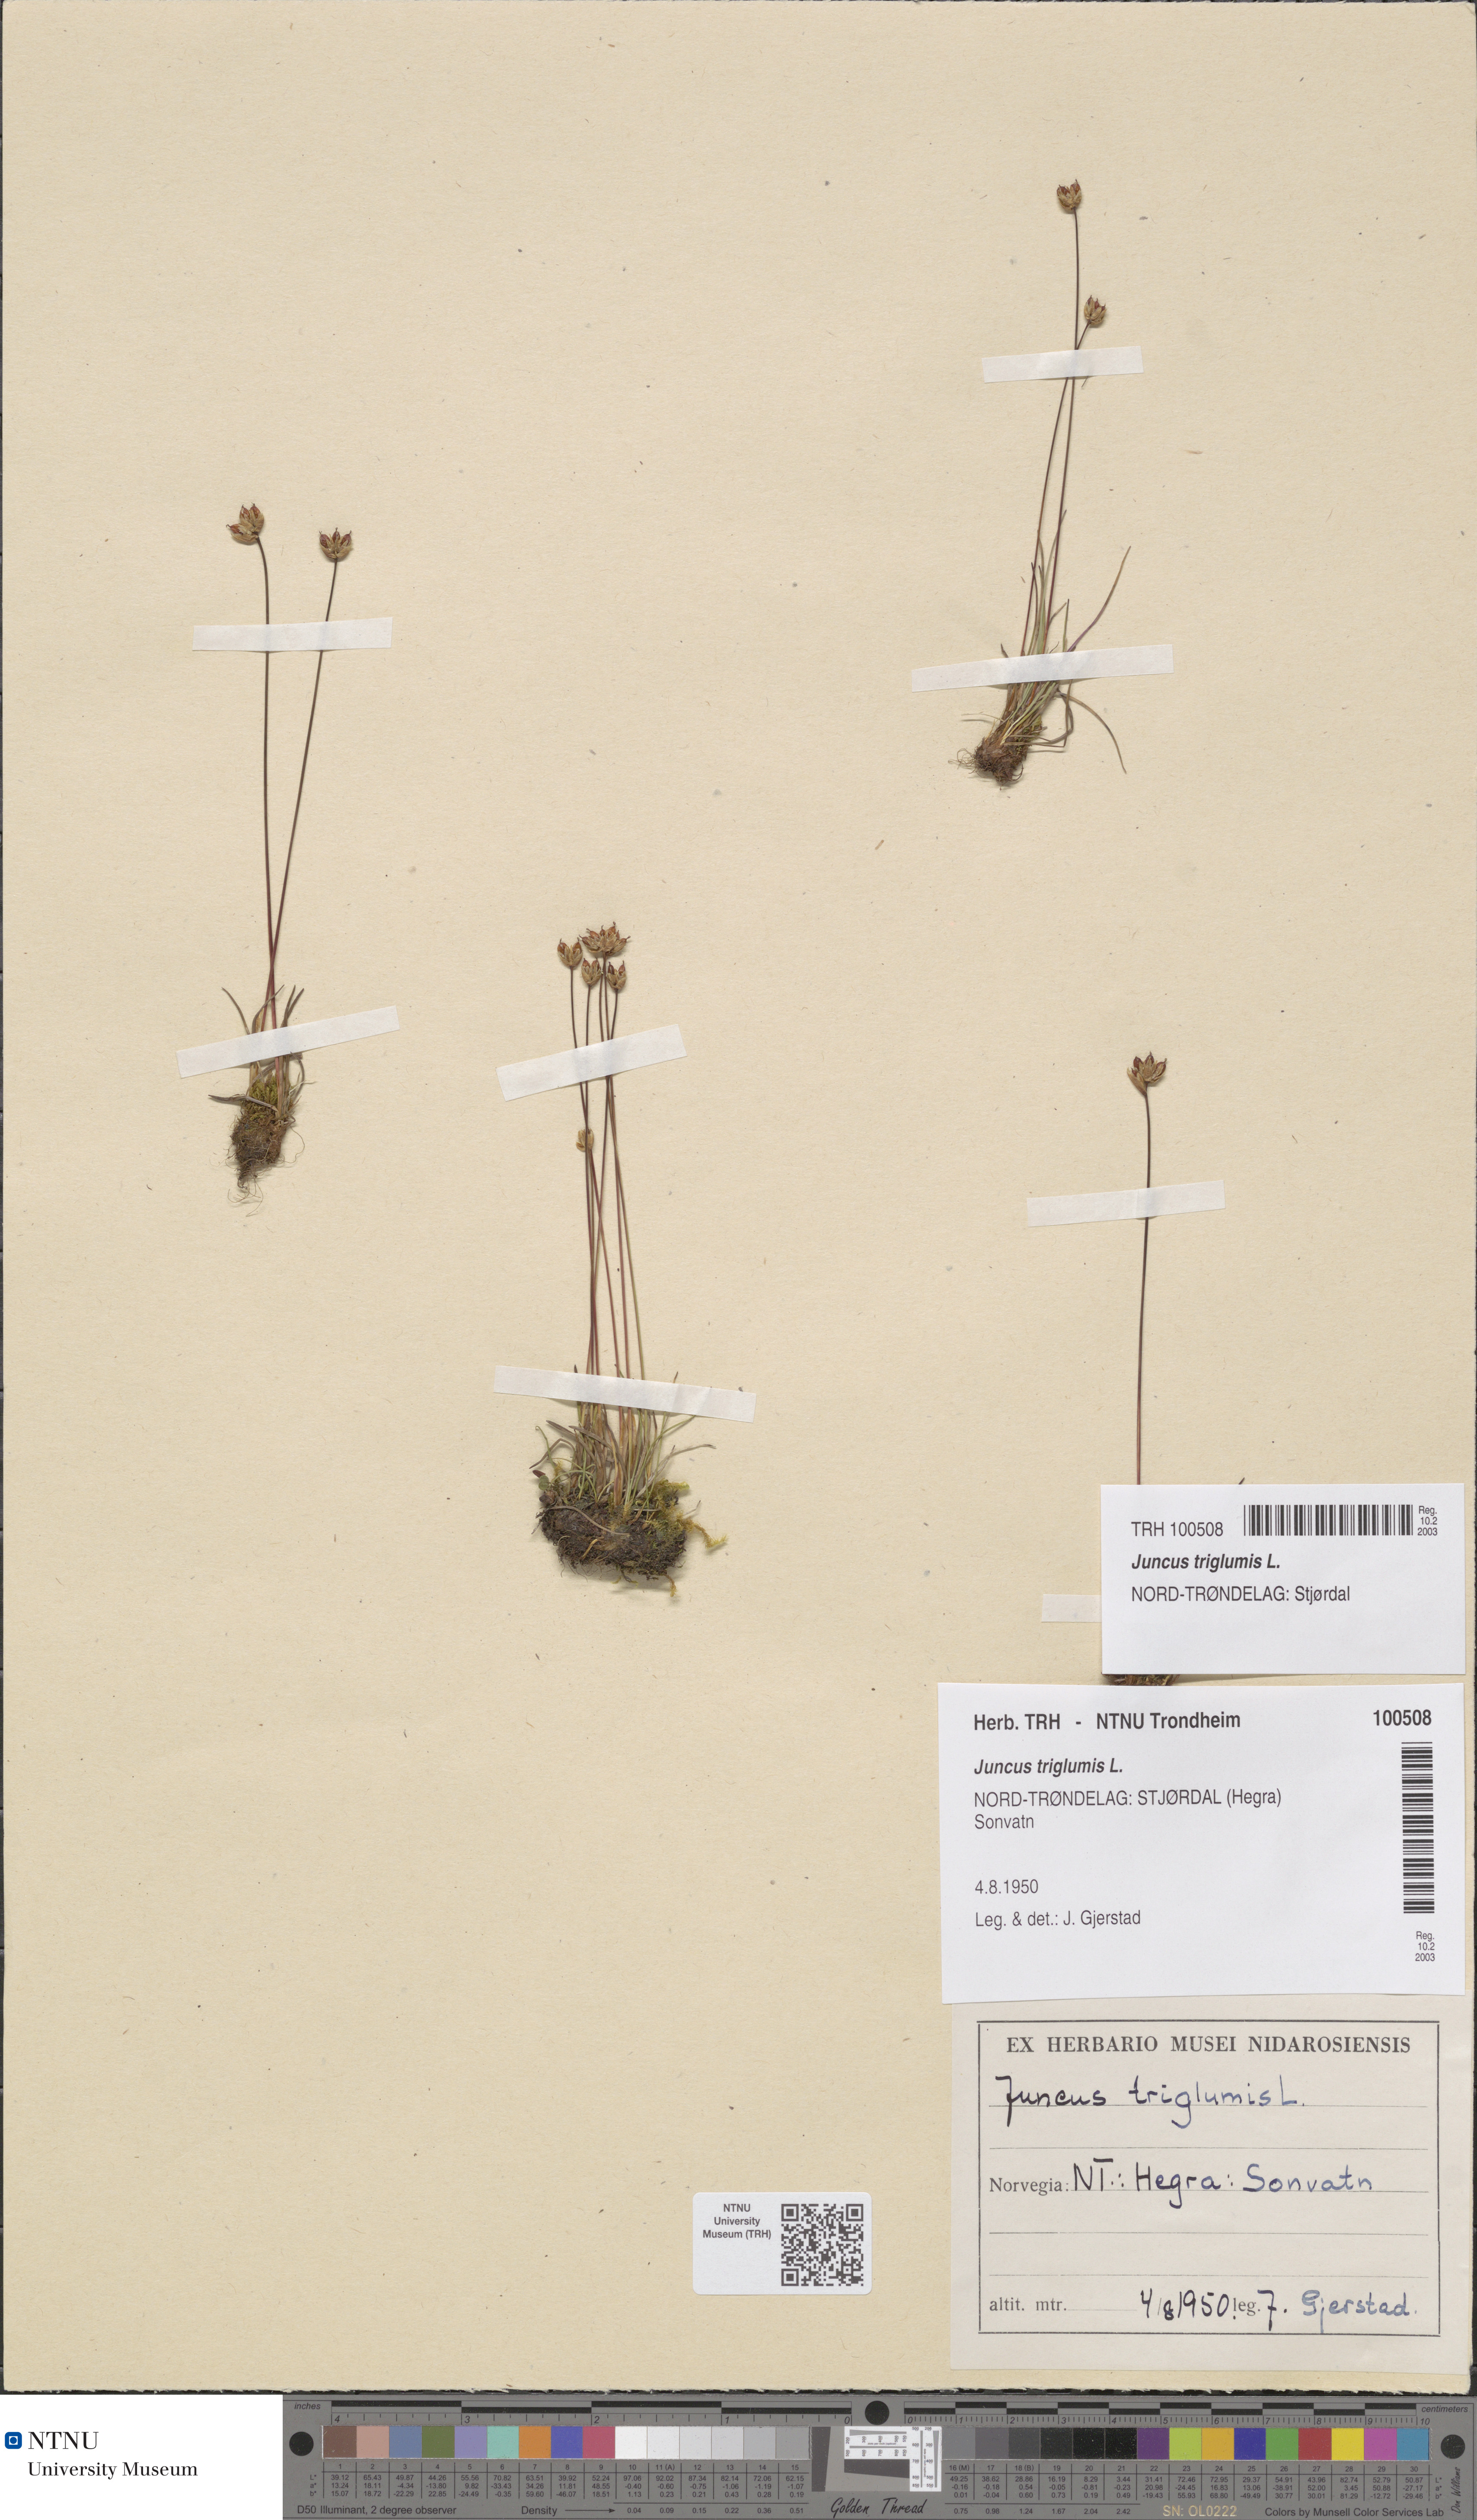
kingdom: Plantae
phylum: Tracheophyta
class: Liliopsida
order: Poales
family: Juncaceae
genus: Juncus
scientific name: Juncus triglumis
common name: Three-flowered rush
